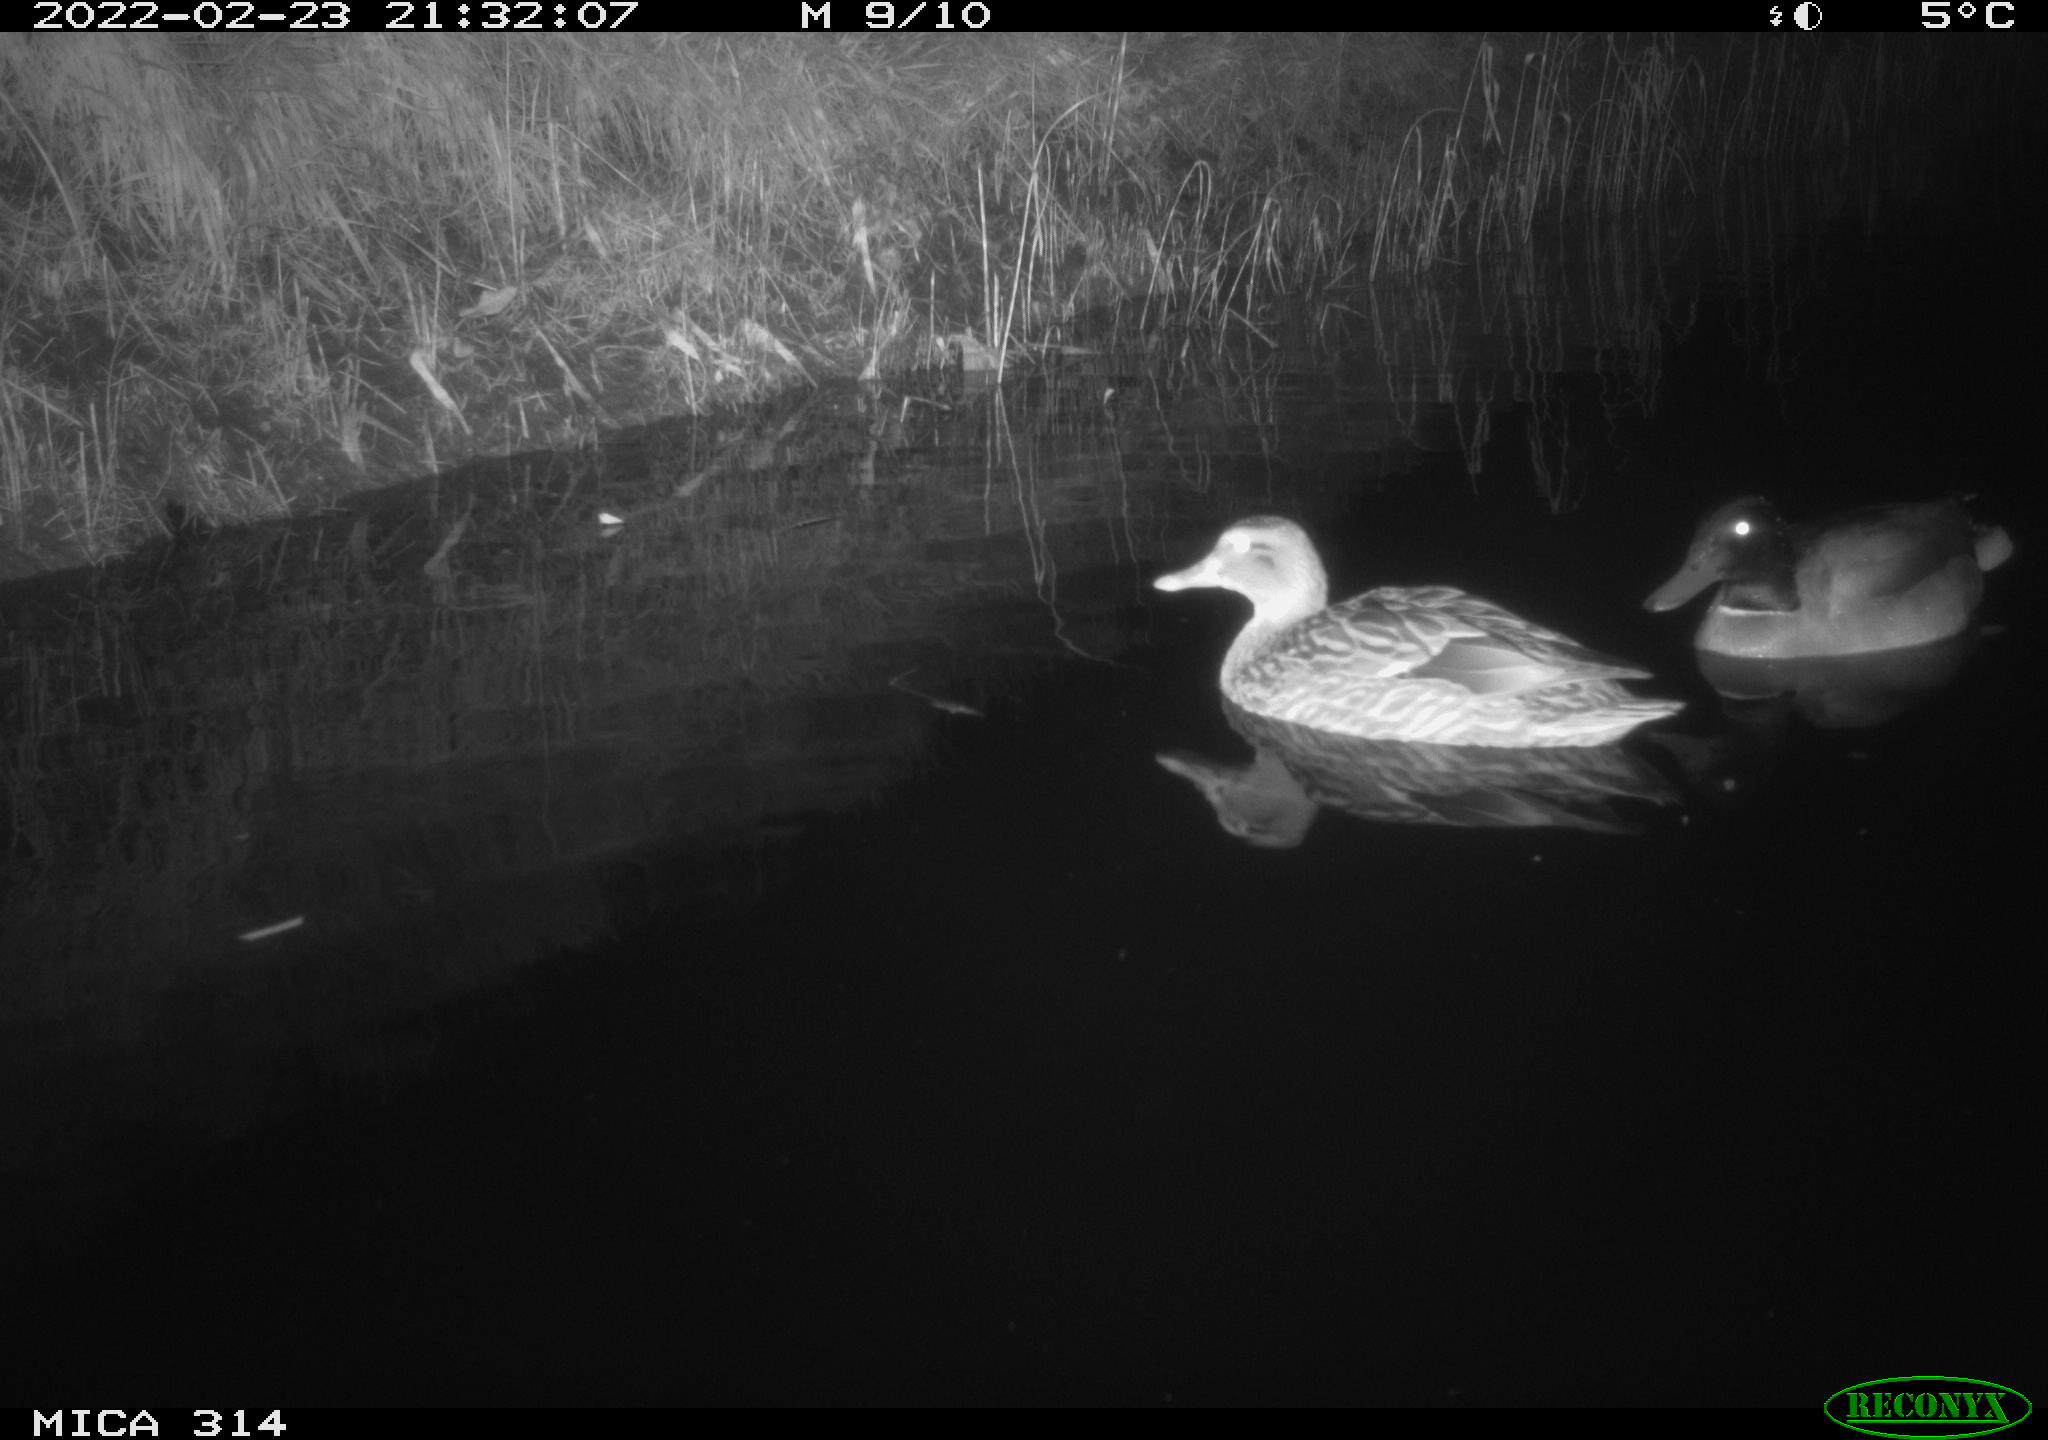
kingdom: Animalia
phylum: Chordata
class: Aves
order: Anseriformes
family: Anatidae
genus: Anas
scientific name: Anas platyrhynchos
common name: Mallard
